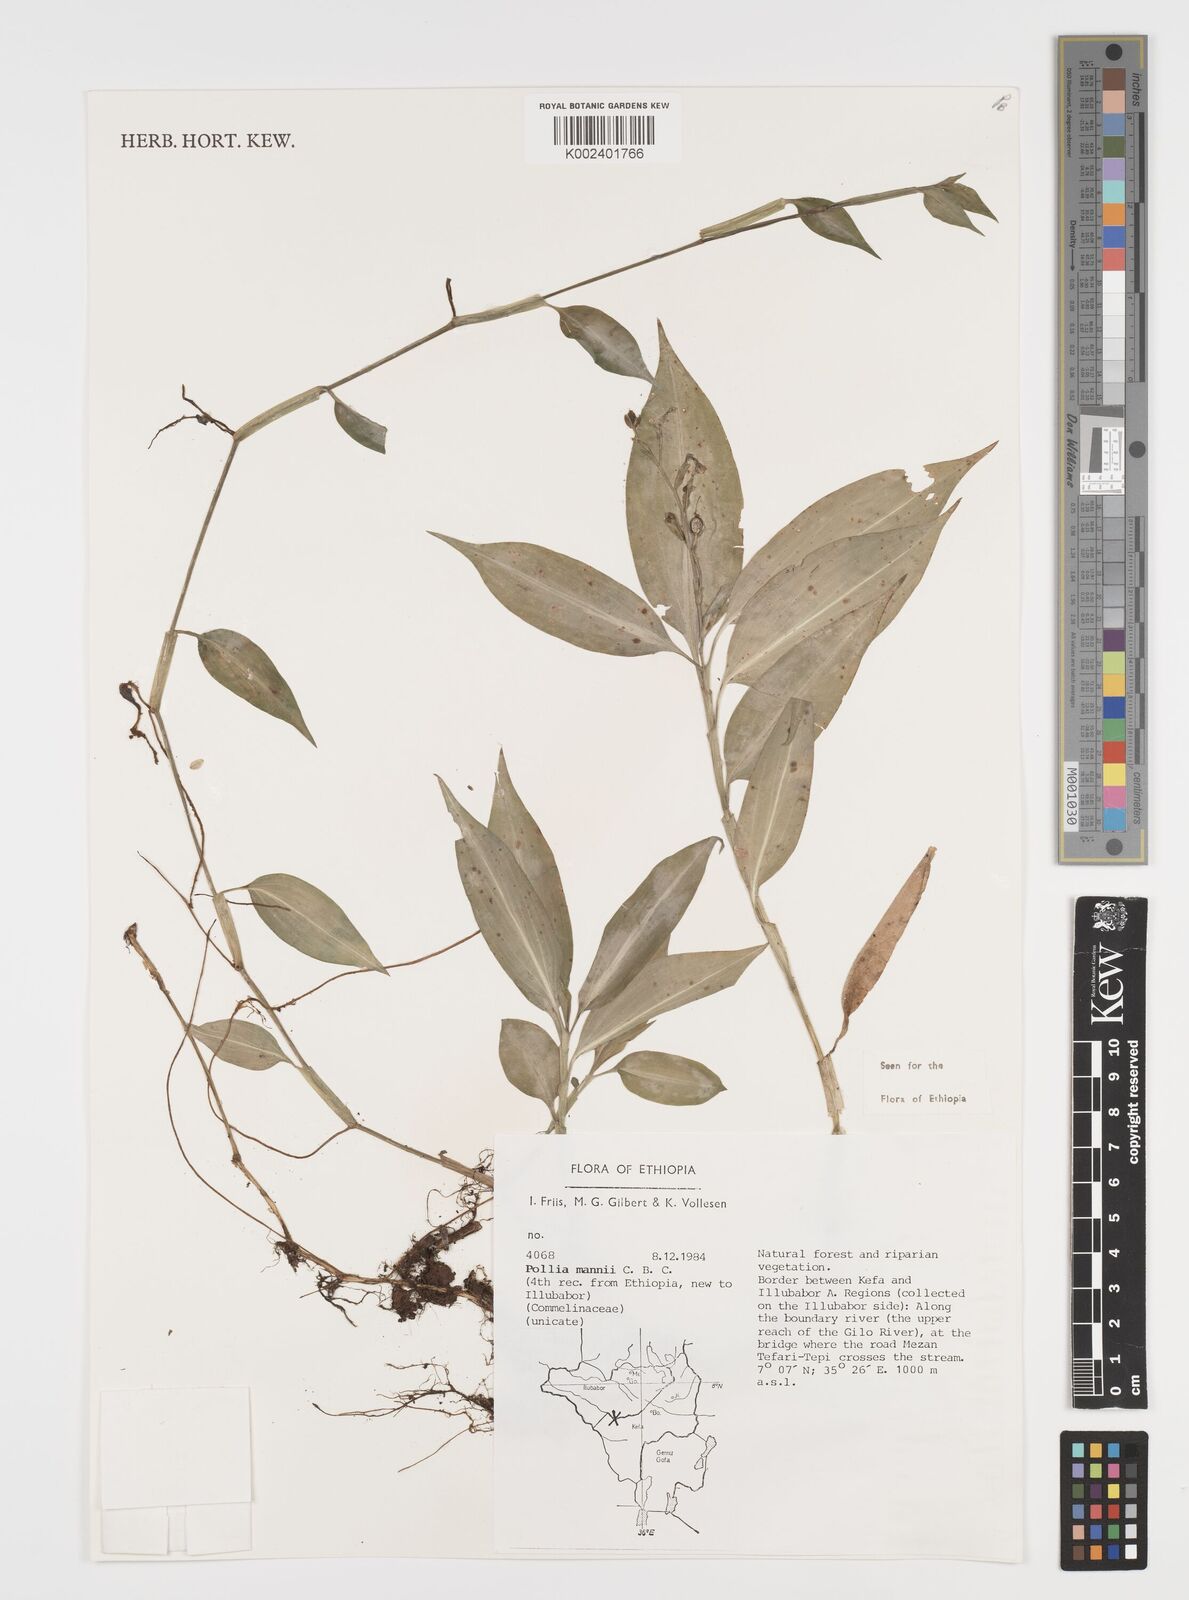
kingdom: Plantae
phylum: Tracheophyta
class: Liliopsida
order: Commelinales
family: Commelinaceae
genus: Pollia
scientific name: Pollia mannii
